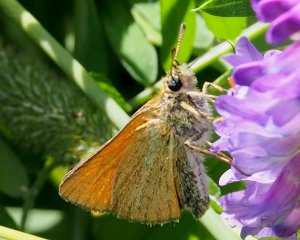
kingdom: Animalia
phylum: Arthropoda
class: Insecta
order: Lepidoptera
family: Hesperiidae
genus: Thymelicus
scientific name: Thymelicus lineola
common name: European Skipper
